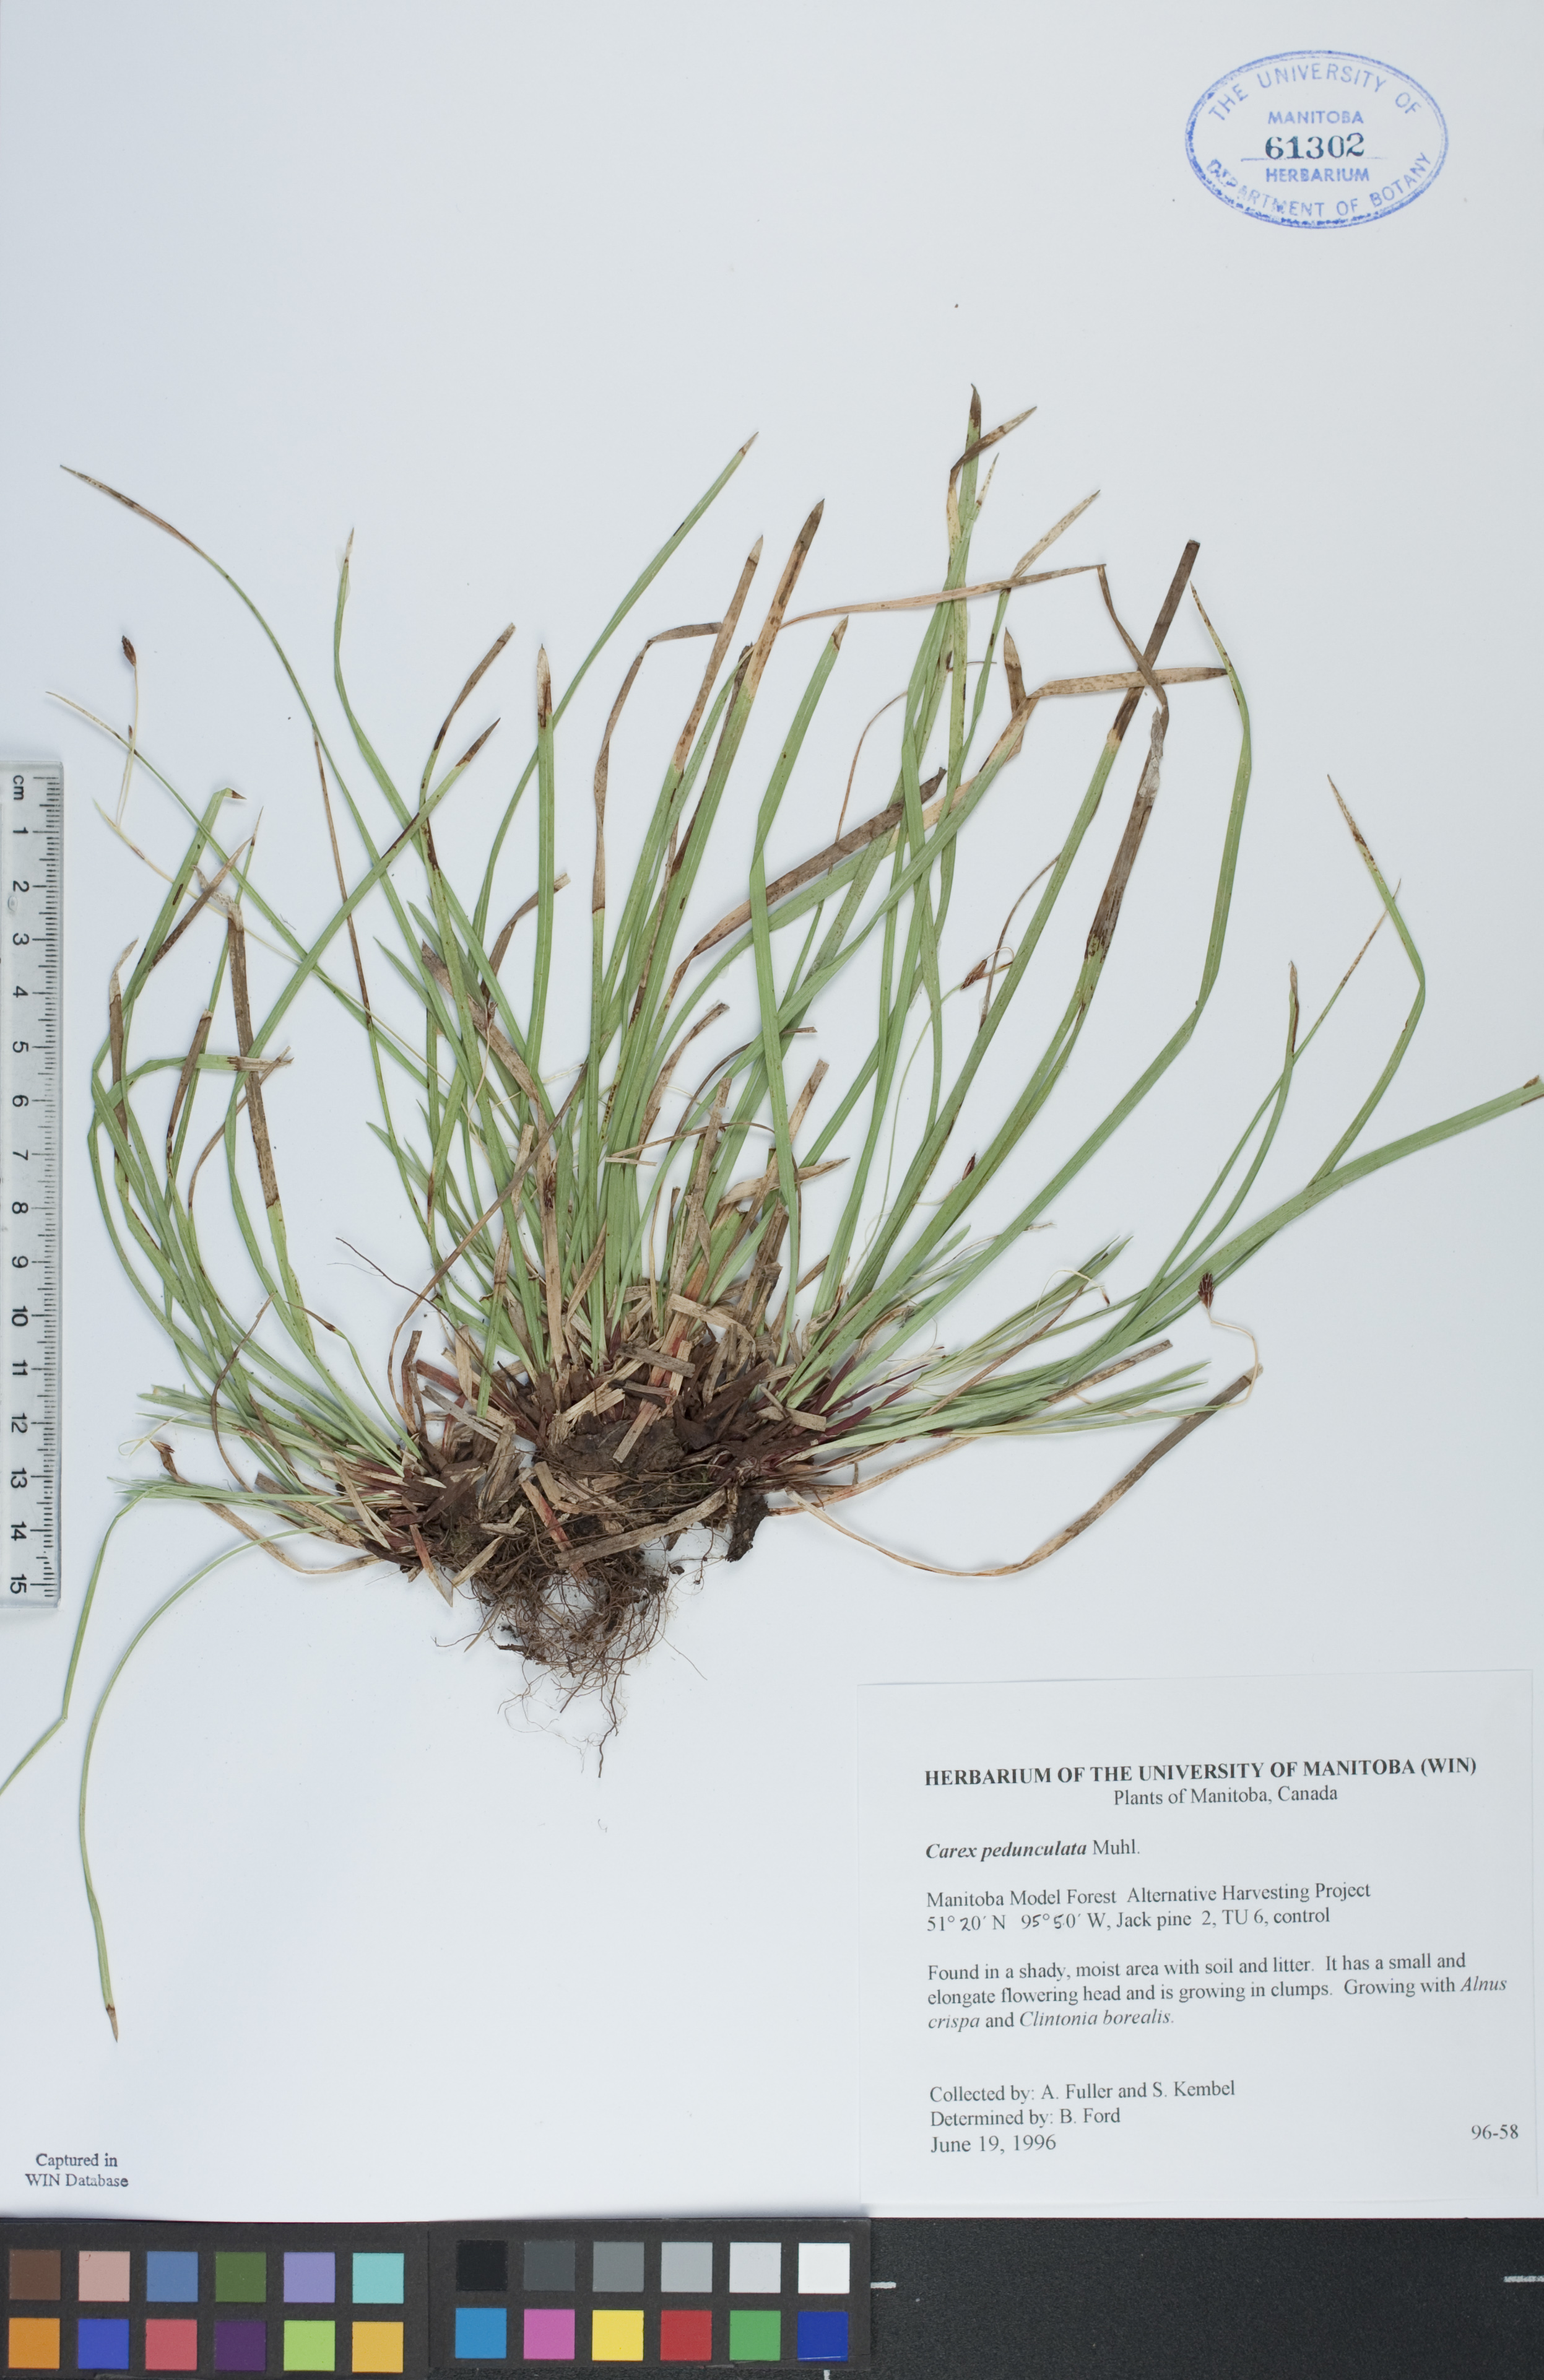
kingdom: Plantae
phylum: Tracheophyta
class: Liliopsida
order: Poales
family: Cyperaceae
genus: Carex
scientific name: Carex pedunculata
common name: Pedunculate sedge
